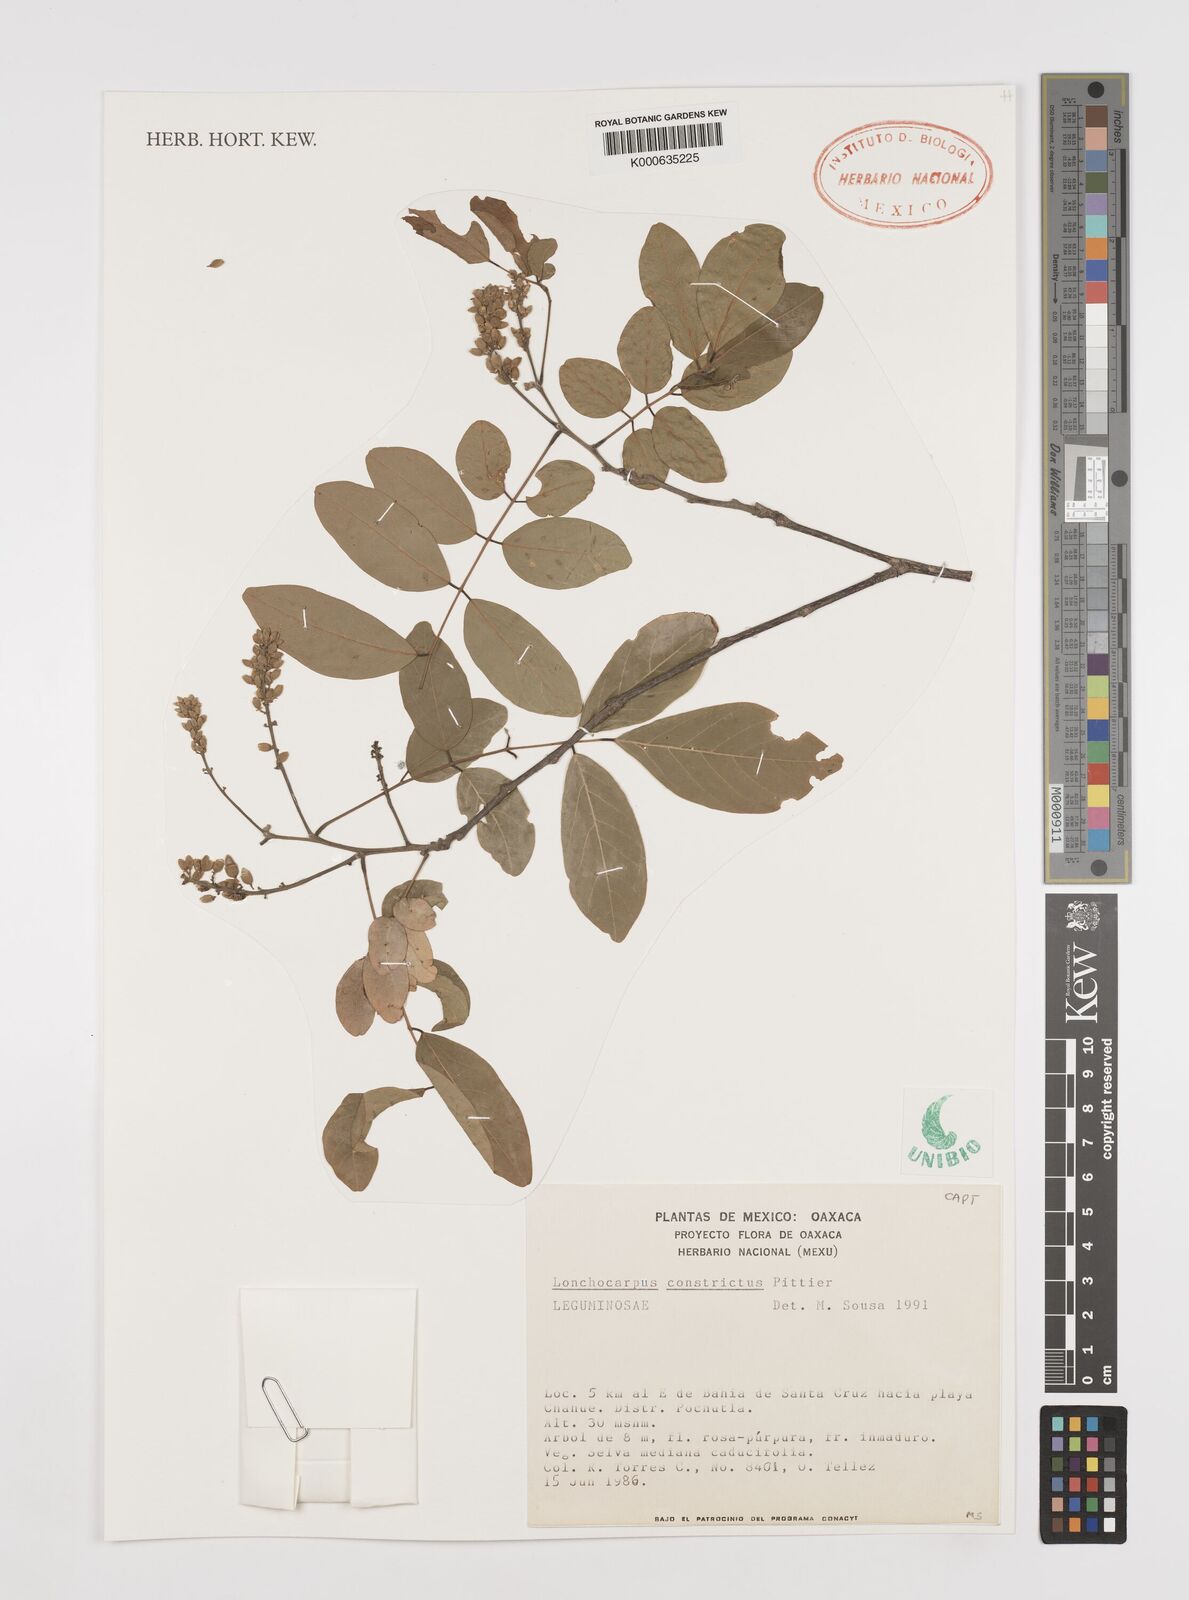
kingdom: Plantae
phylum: Tracheophyta
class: Magnoliopsida
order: Fabales
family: Fabaceae
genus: Lonchocarpus
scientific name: Lonchocarpus constrictus
